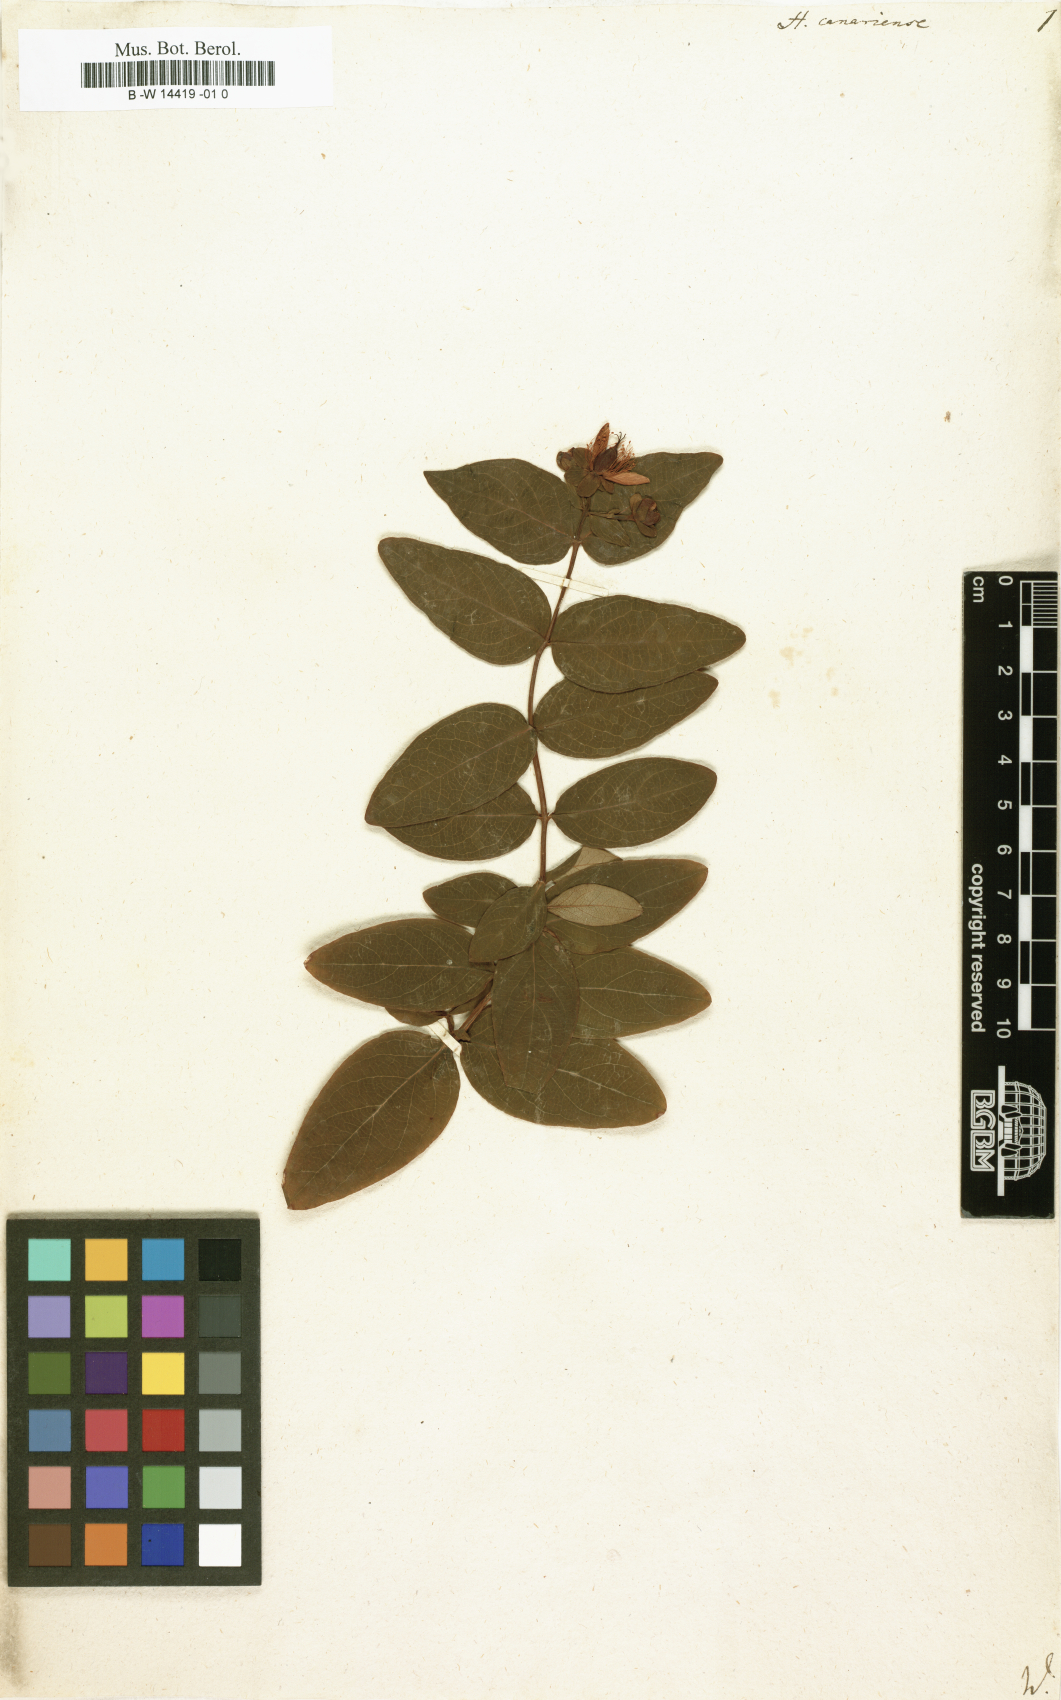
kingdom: Plantae
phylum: Tracheophyta
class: Magnoliopsida
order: Malpighiales
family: Hypericaceae
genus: Hypericum
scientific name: Hypericum canariense
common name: Canary island st. johnswort
